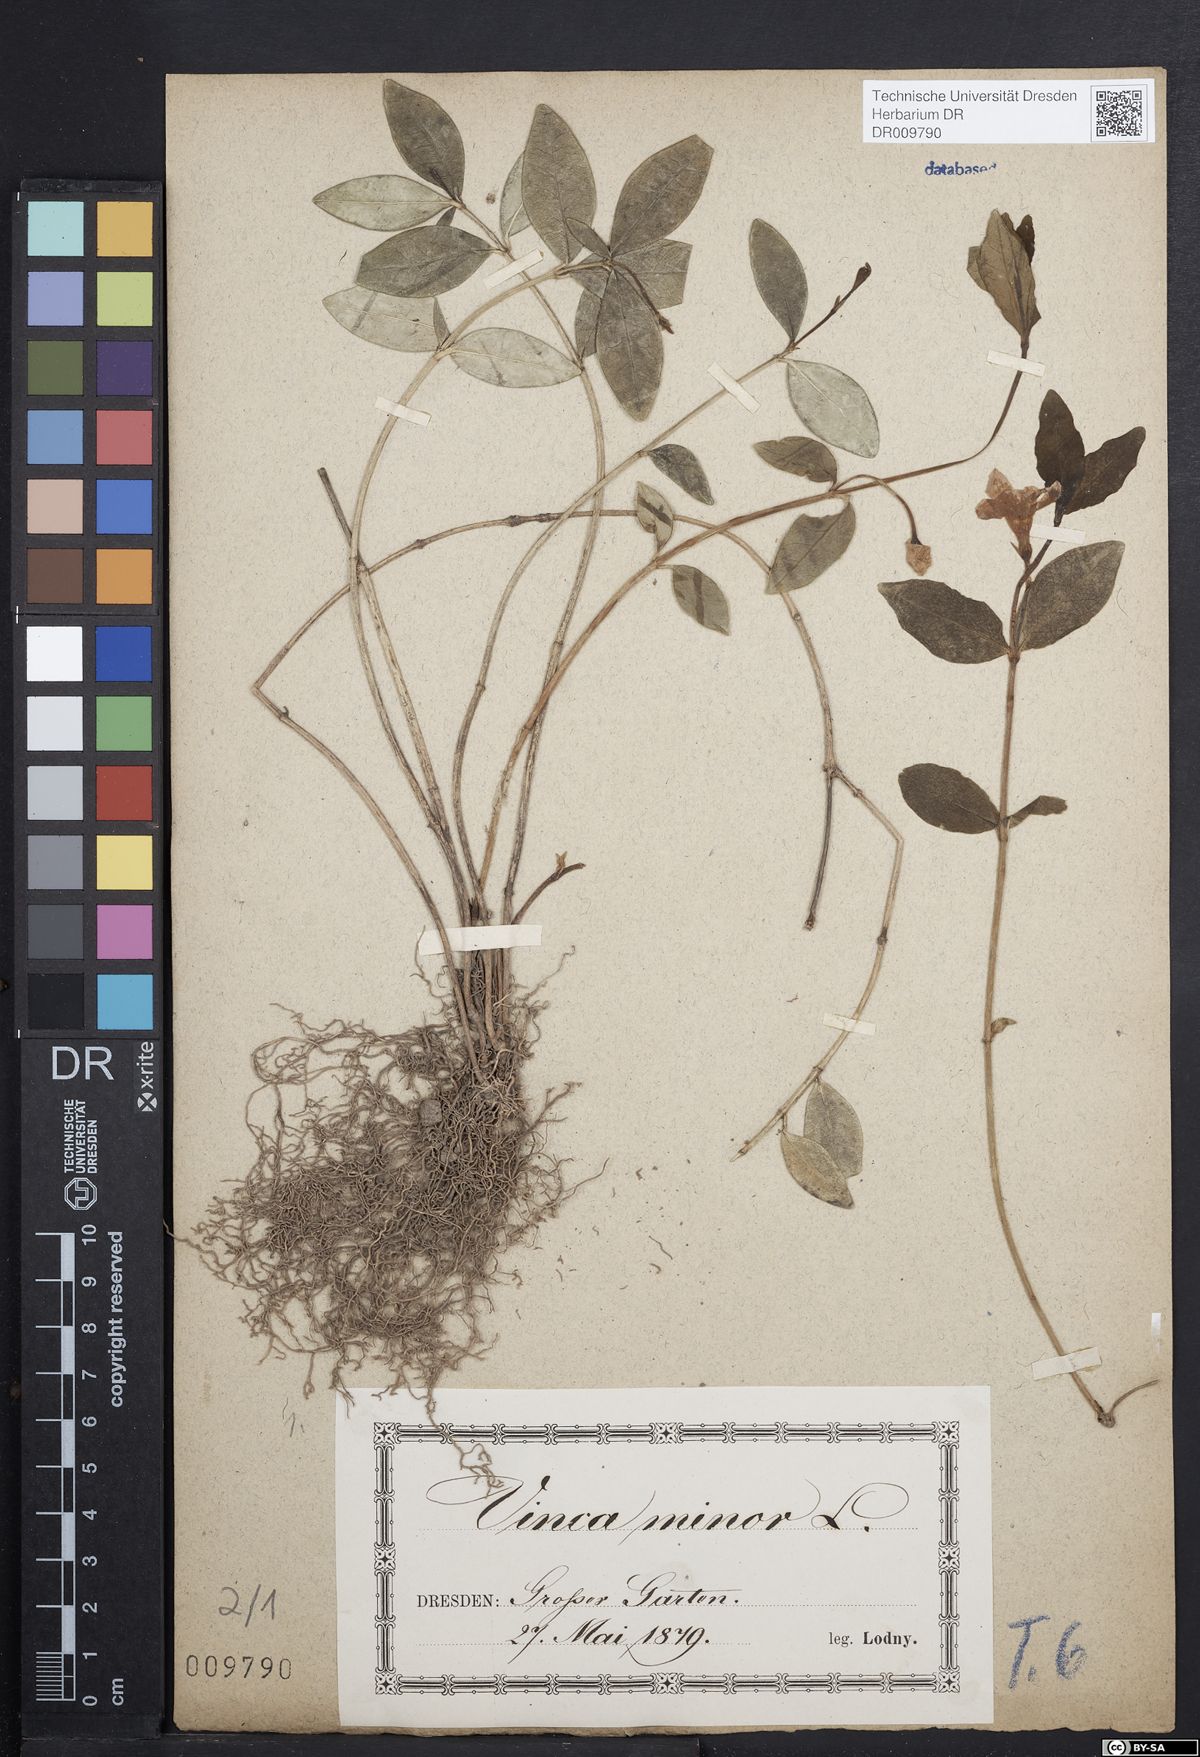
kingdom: Plantae
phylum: Tracheophyta
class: Magnoliopsida
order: Gentianales
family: Apocynaceae
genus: Vinca
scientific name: Vinca minor
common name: Lesser periwinkle
